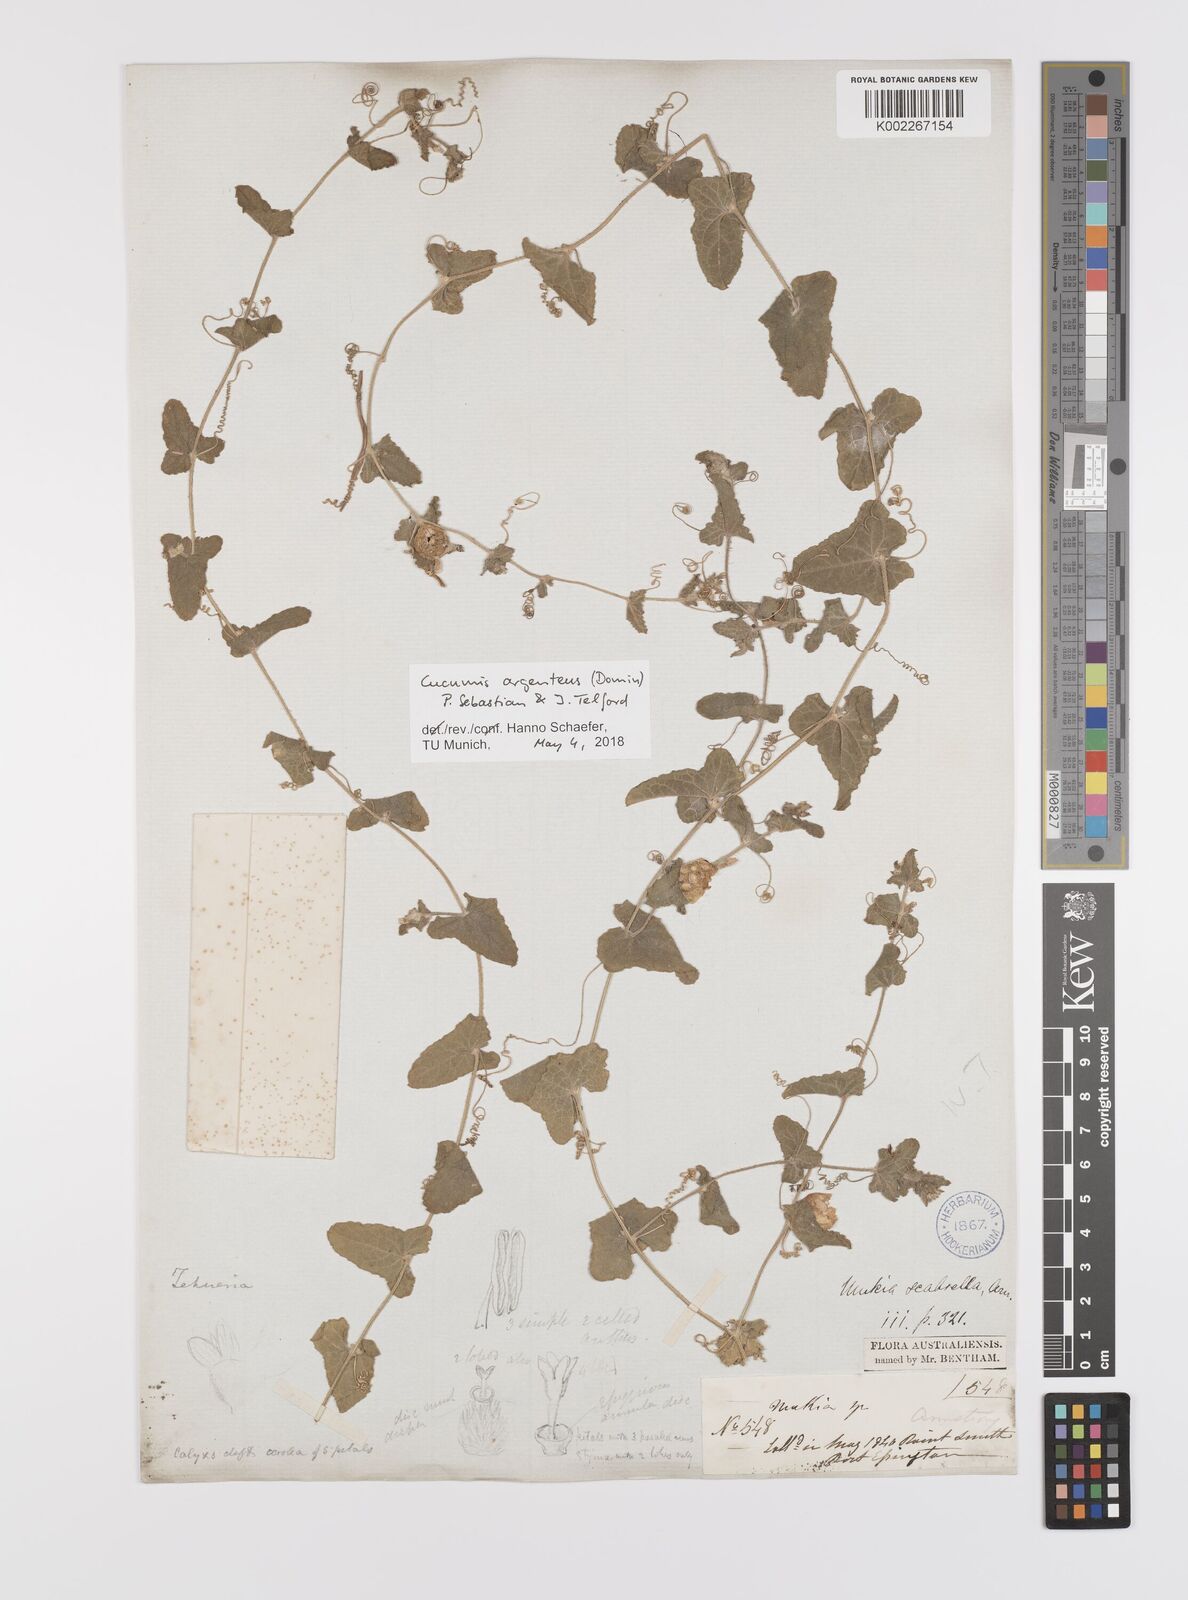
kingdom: Plantae
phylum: Tracheophyta
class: Magnoliopsida
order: Cucurbitales
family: Cucurbitaceae
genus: Cucumis
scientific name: Cucumis argenteus
